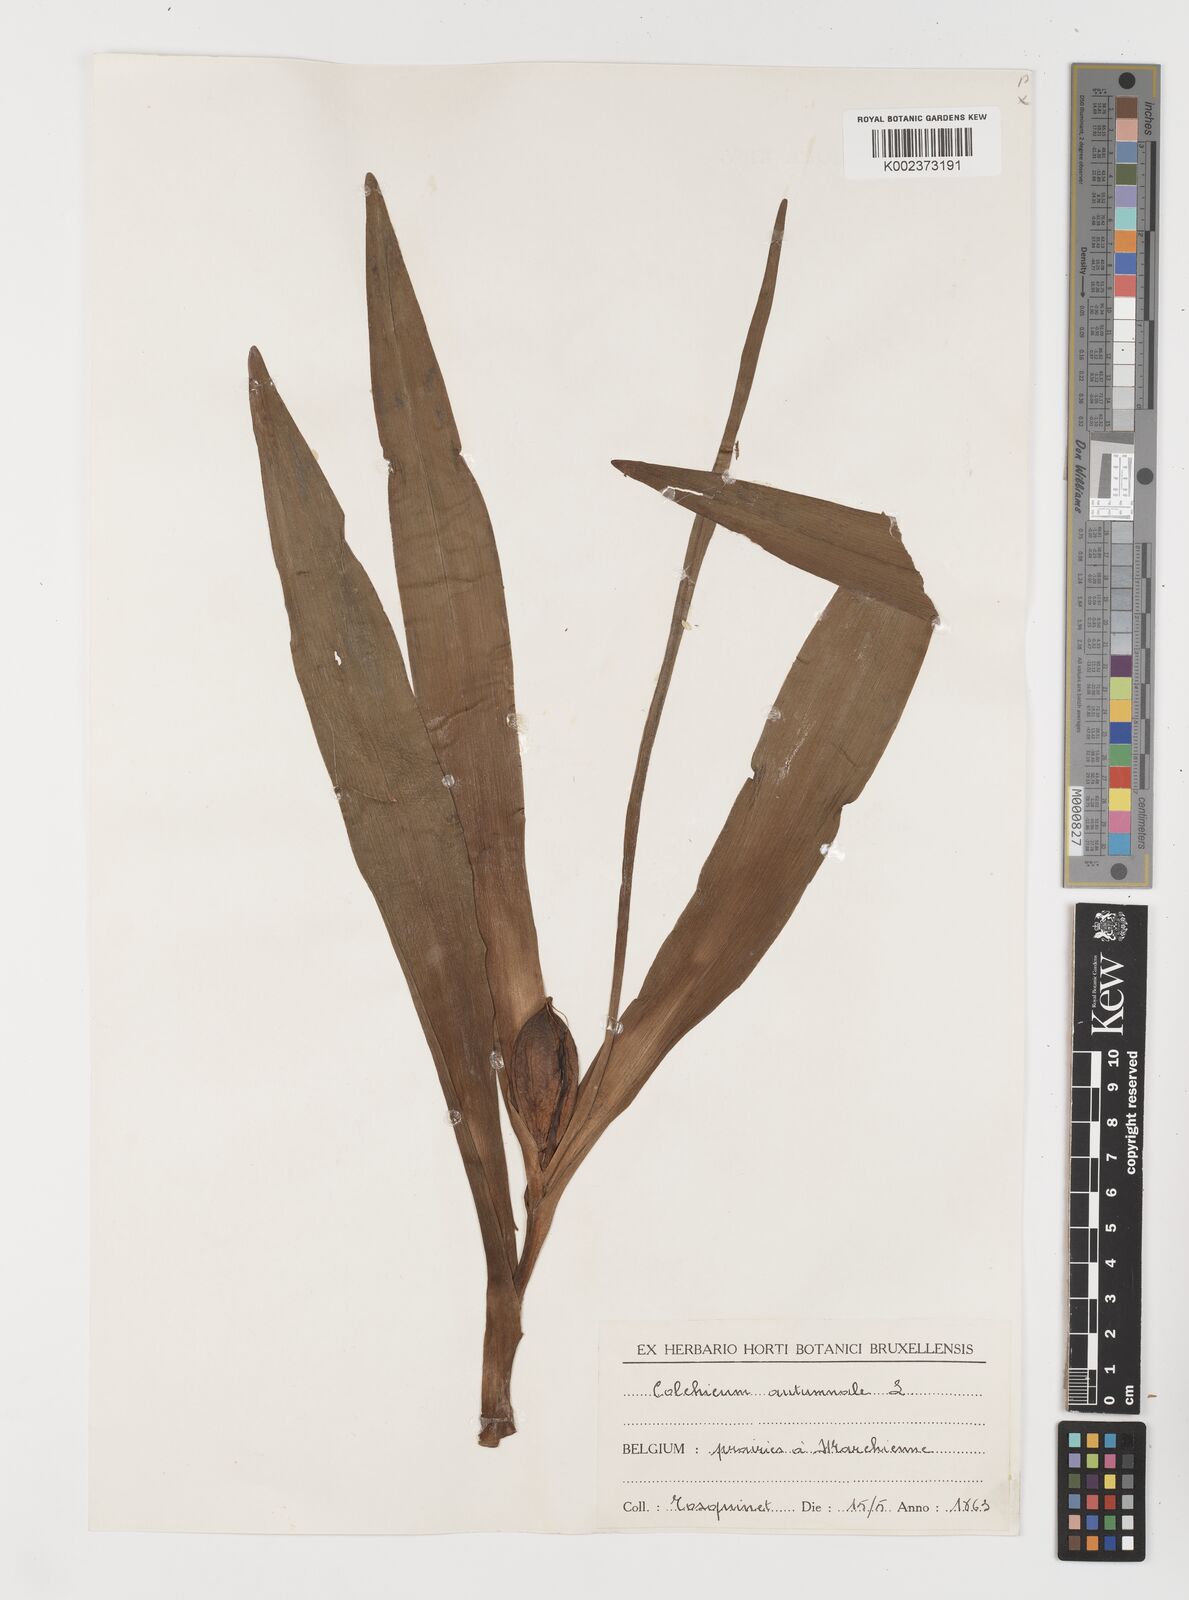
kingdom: Plantae
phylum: Tracheophyta
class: Liliopsida
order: Liliales
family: Colchicaceae
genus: Colchicum
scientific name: Colchicum autumnale
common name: Autumn crocus
